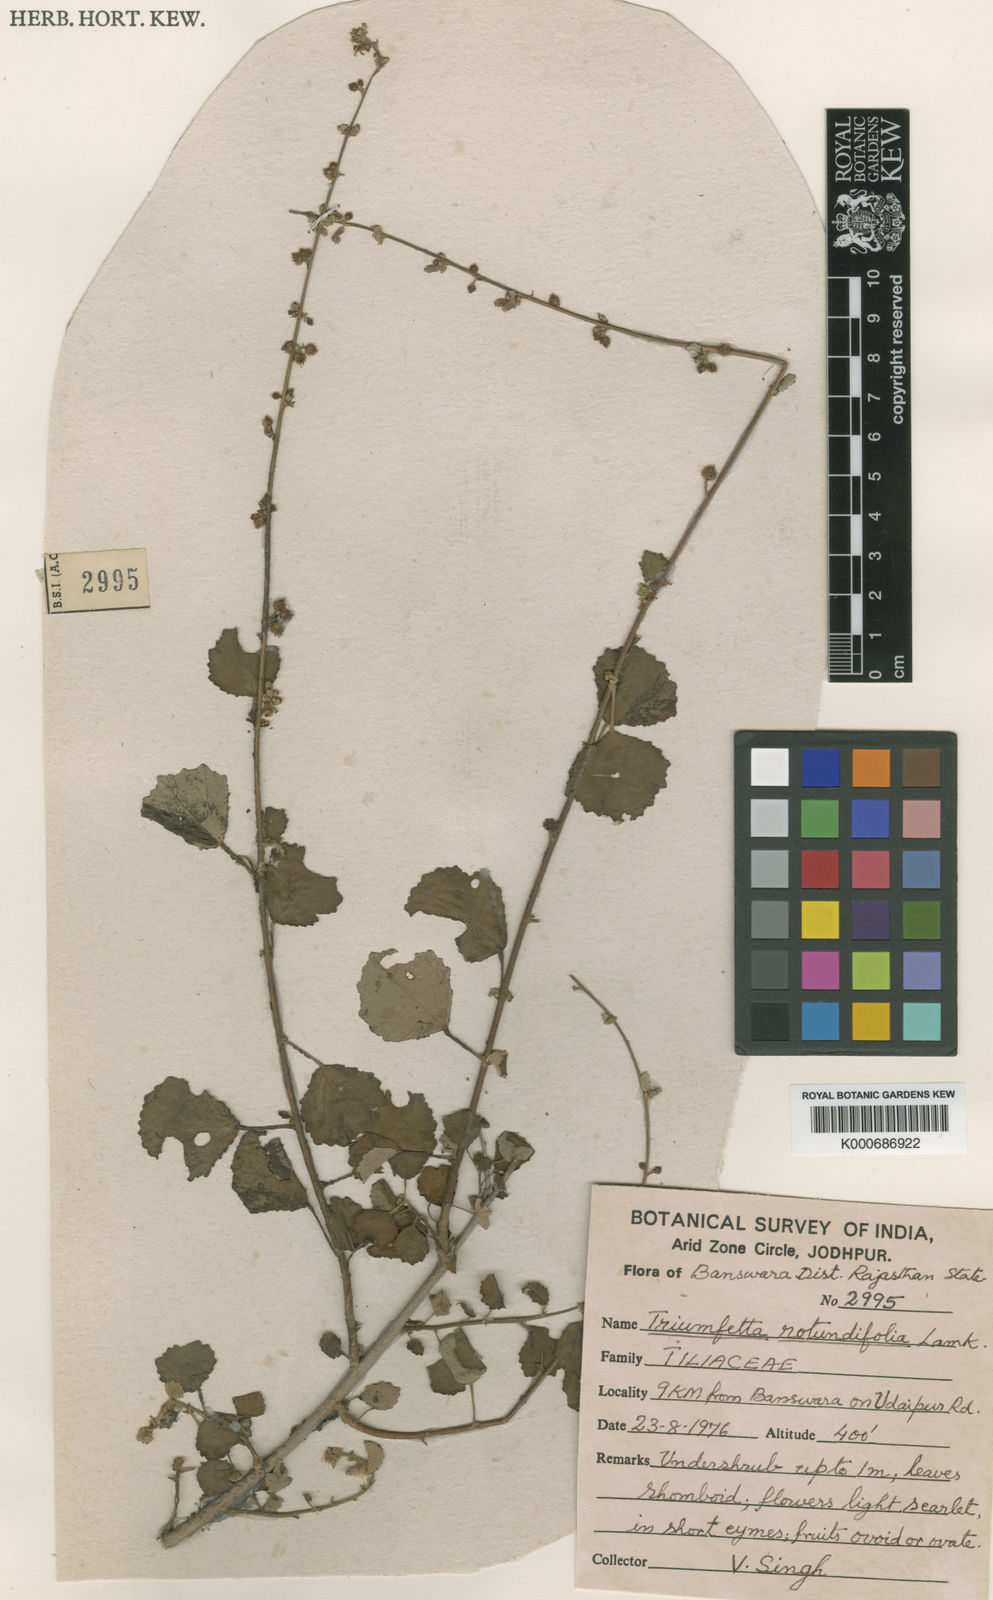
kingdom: Plantae
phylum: Tracheophyta
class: Magnoliopsida
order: Malvales
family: Malvaceae
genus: Triumfetta
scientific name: Triumfetta rotundifolia
